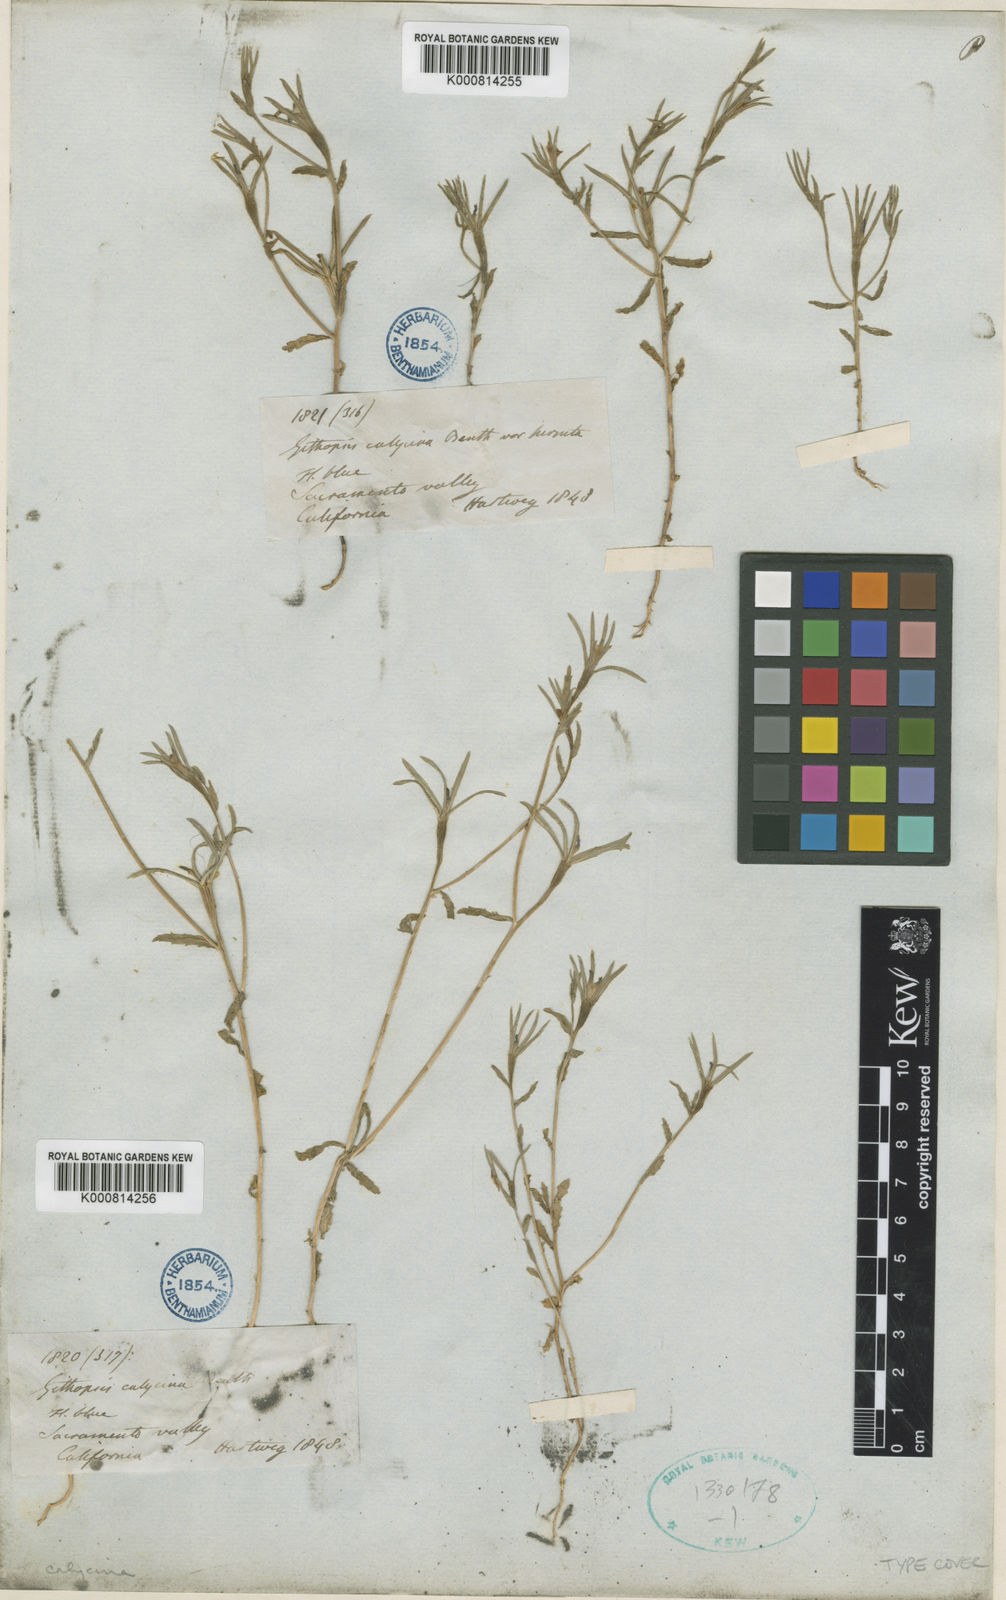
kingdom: Plantae
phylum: Tracheophyta
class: Magnoliopsida
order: Asterales
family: Campanulaceae
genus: Githopsis
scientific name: Githopsis specularioides
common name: Common bluecup
